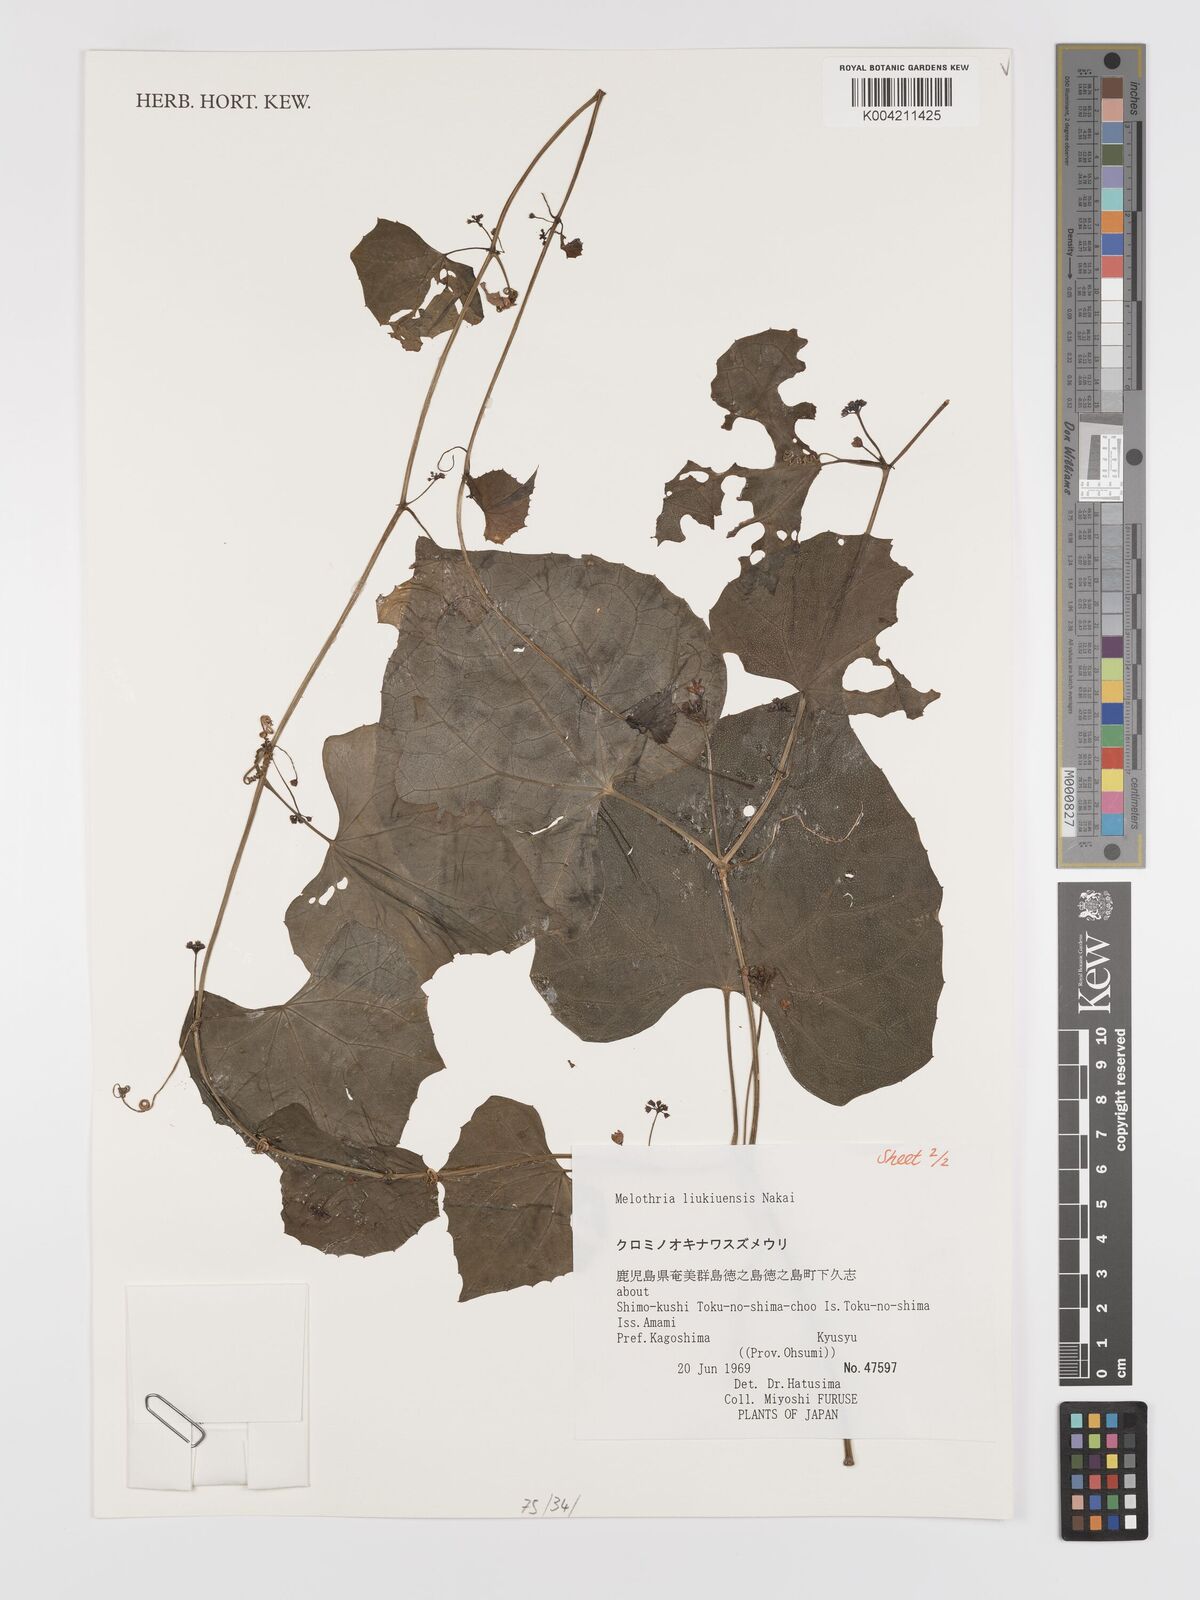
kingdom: Plantae
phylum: Tracheophyta
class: Magnoliopsida
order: Cucurbitales
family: Cucurbitaceae
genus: Zehneria
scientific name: Zehneria liukiuensis
